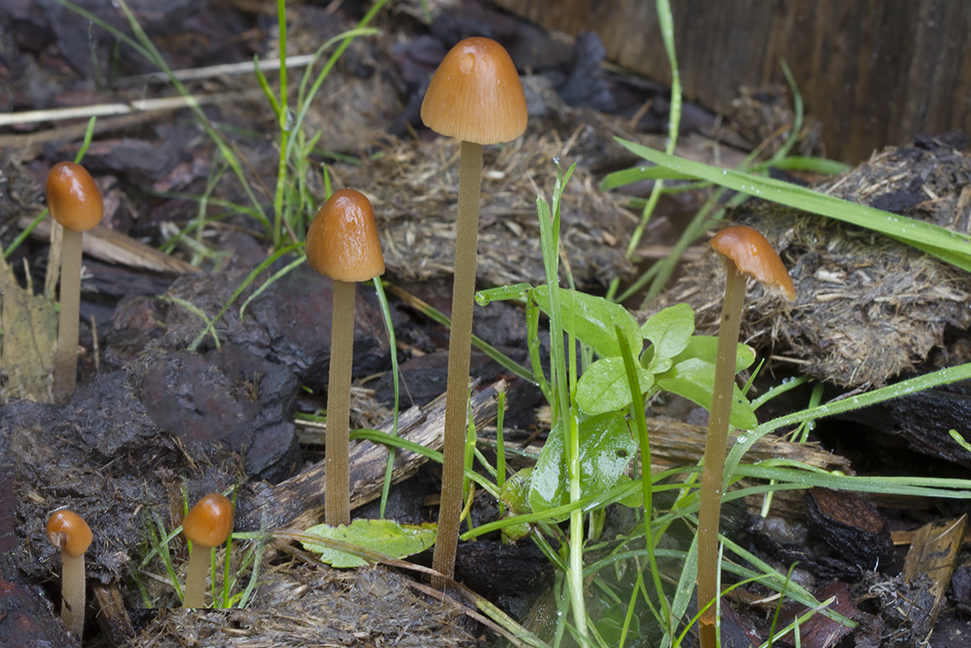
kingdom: Fungi
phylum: Basidiomycota
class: Agaricomycetes
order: Agaricales
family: Bolbitiaceae
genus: Conocybe
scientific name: Conocybe macrospora
